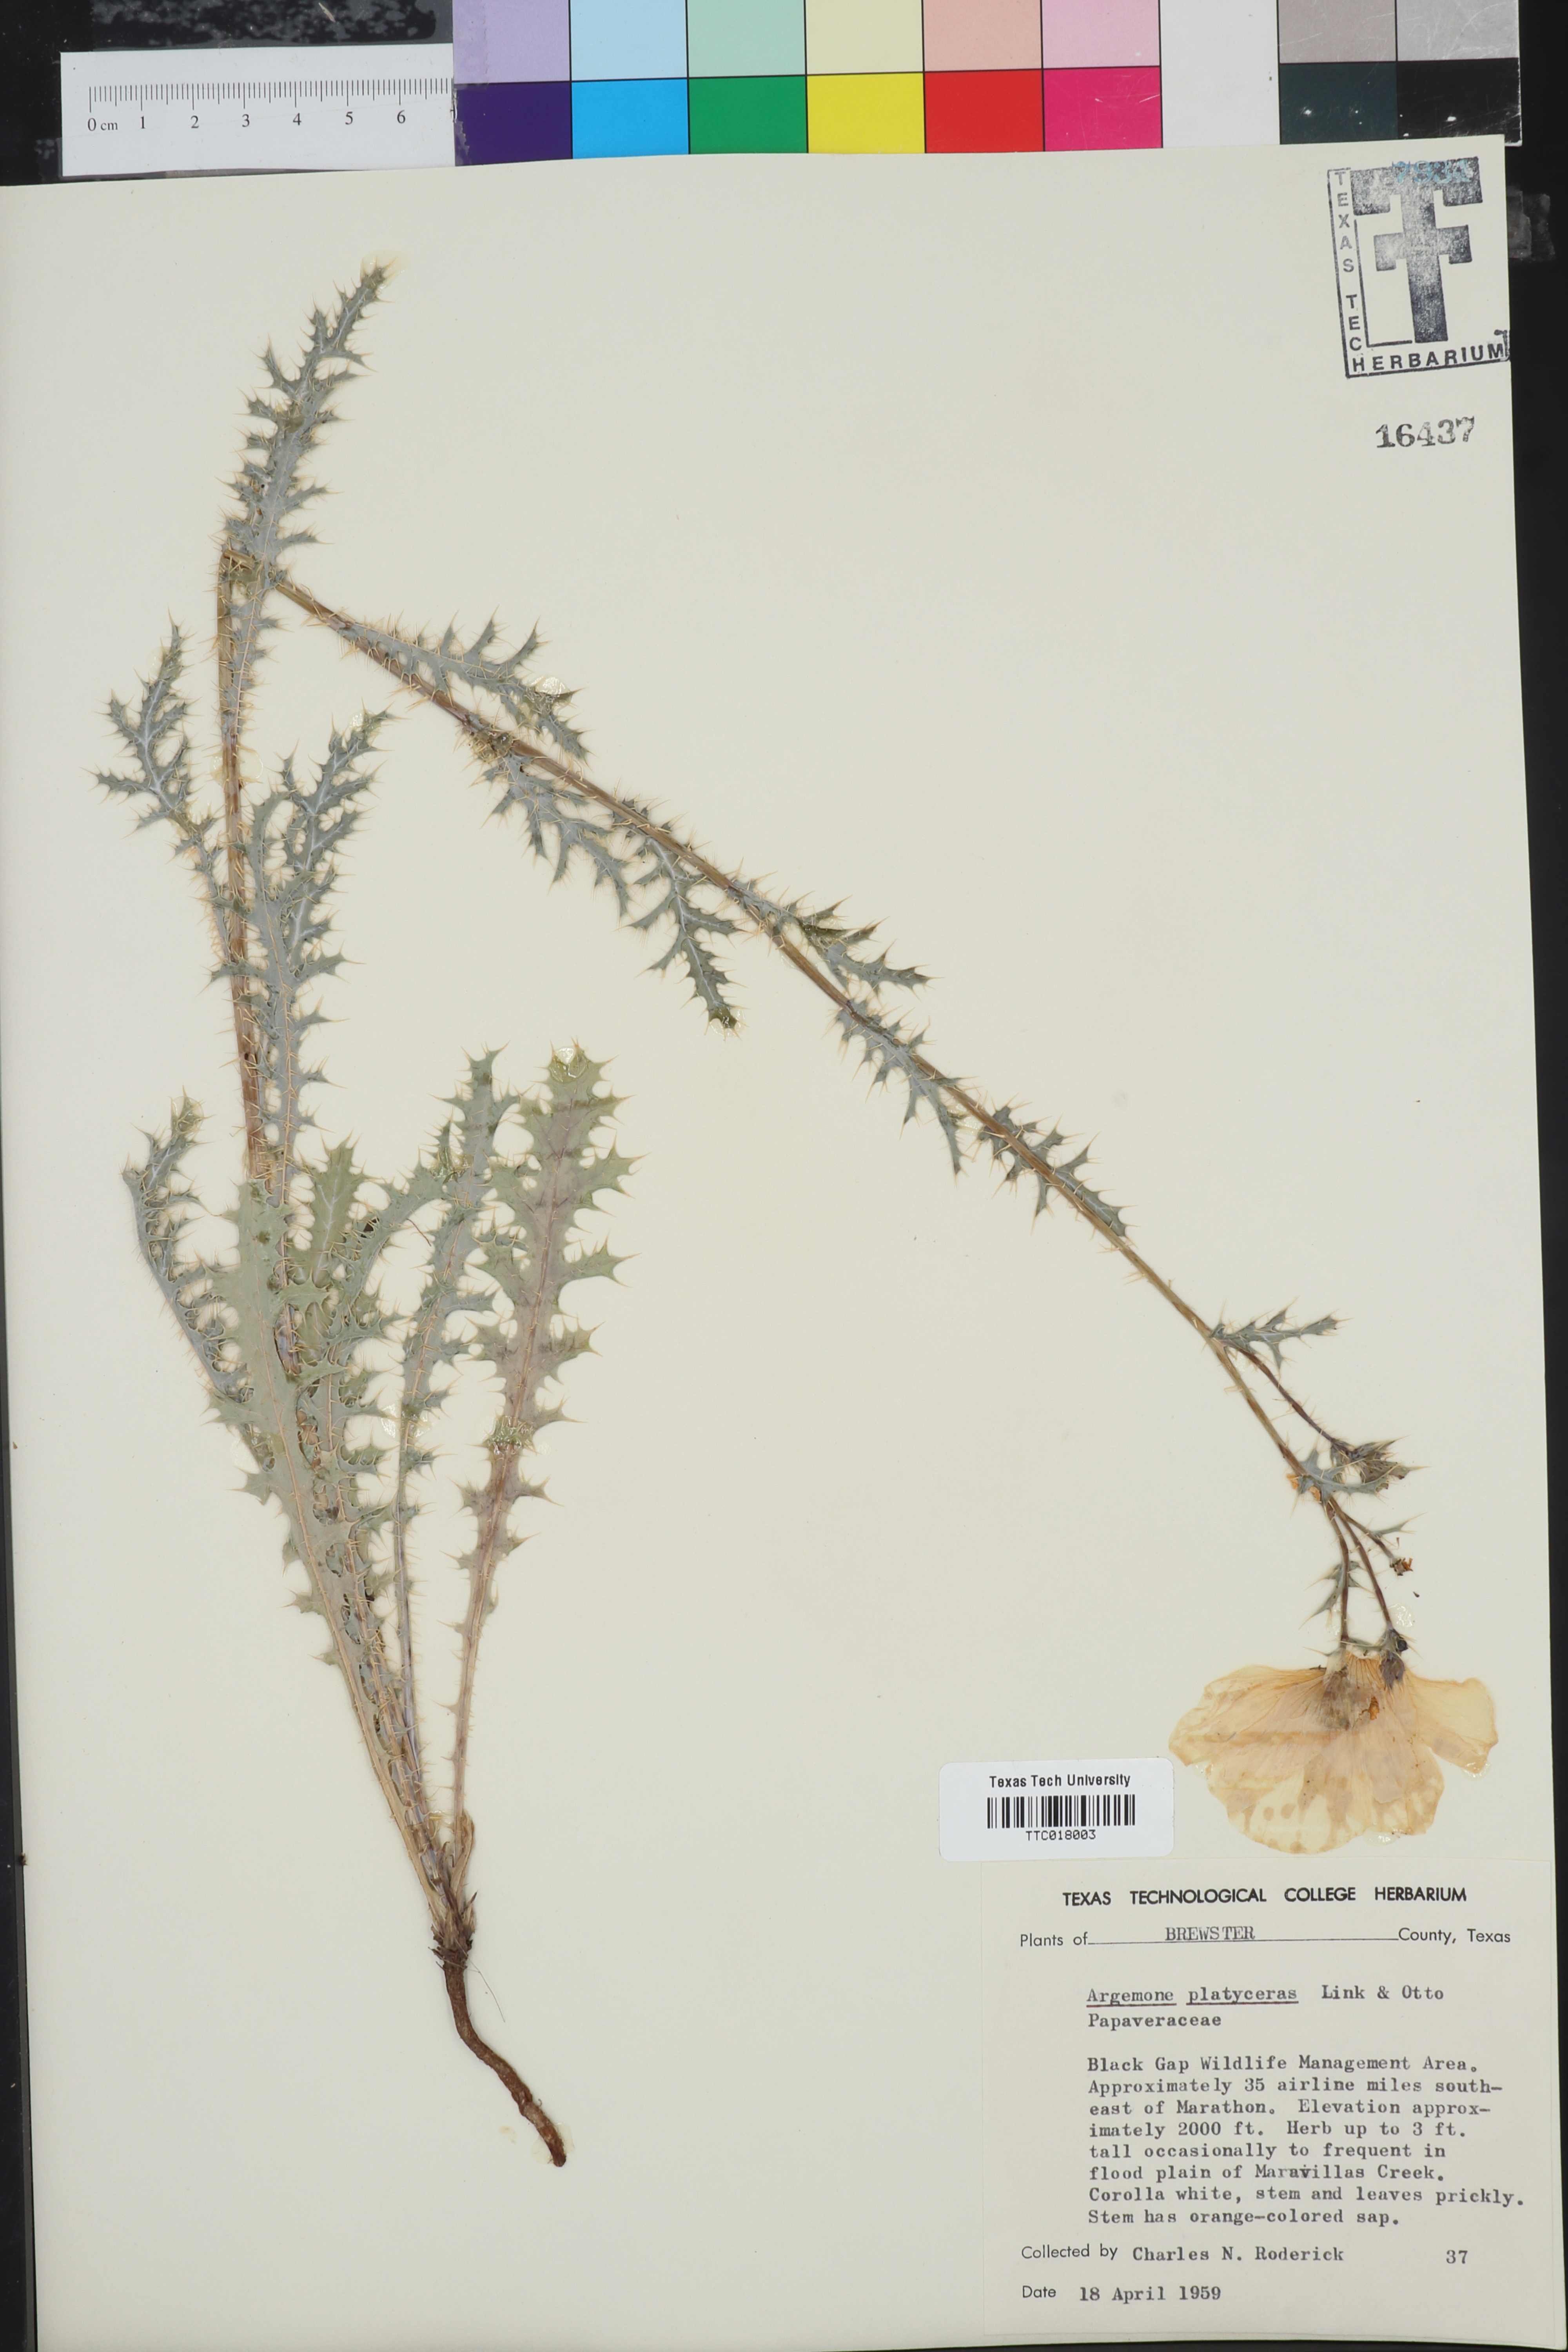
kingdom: Plantae
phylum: Tracheophyta
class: Magnoliopsida
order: Ranunculales
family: Papaveraceae
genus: Argemone
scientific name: Argemone platyceras
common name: Crested-poppy
